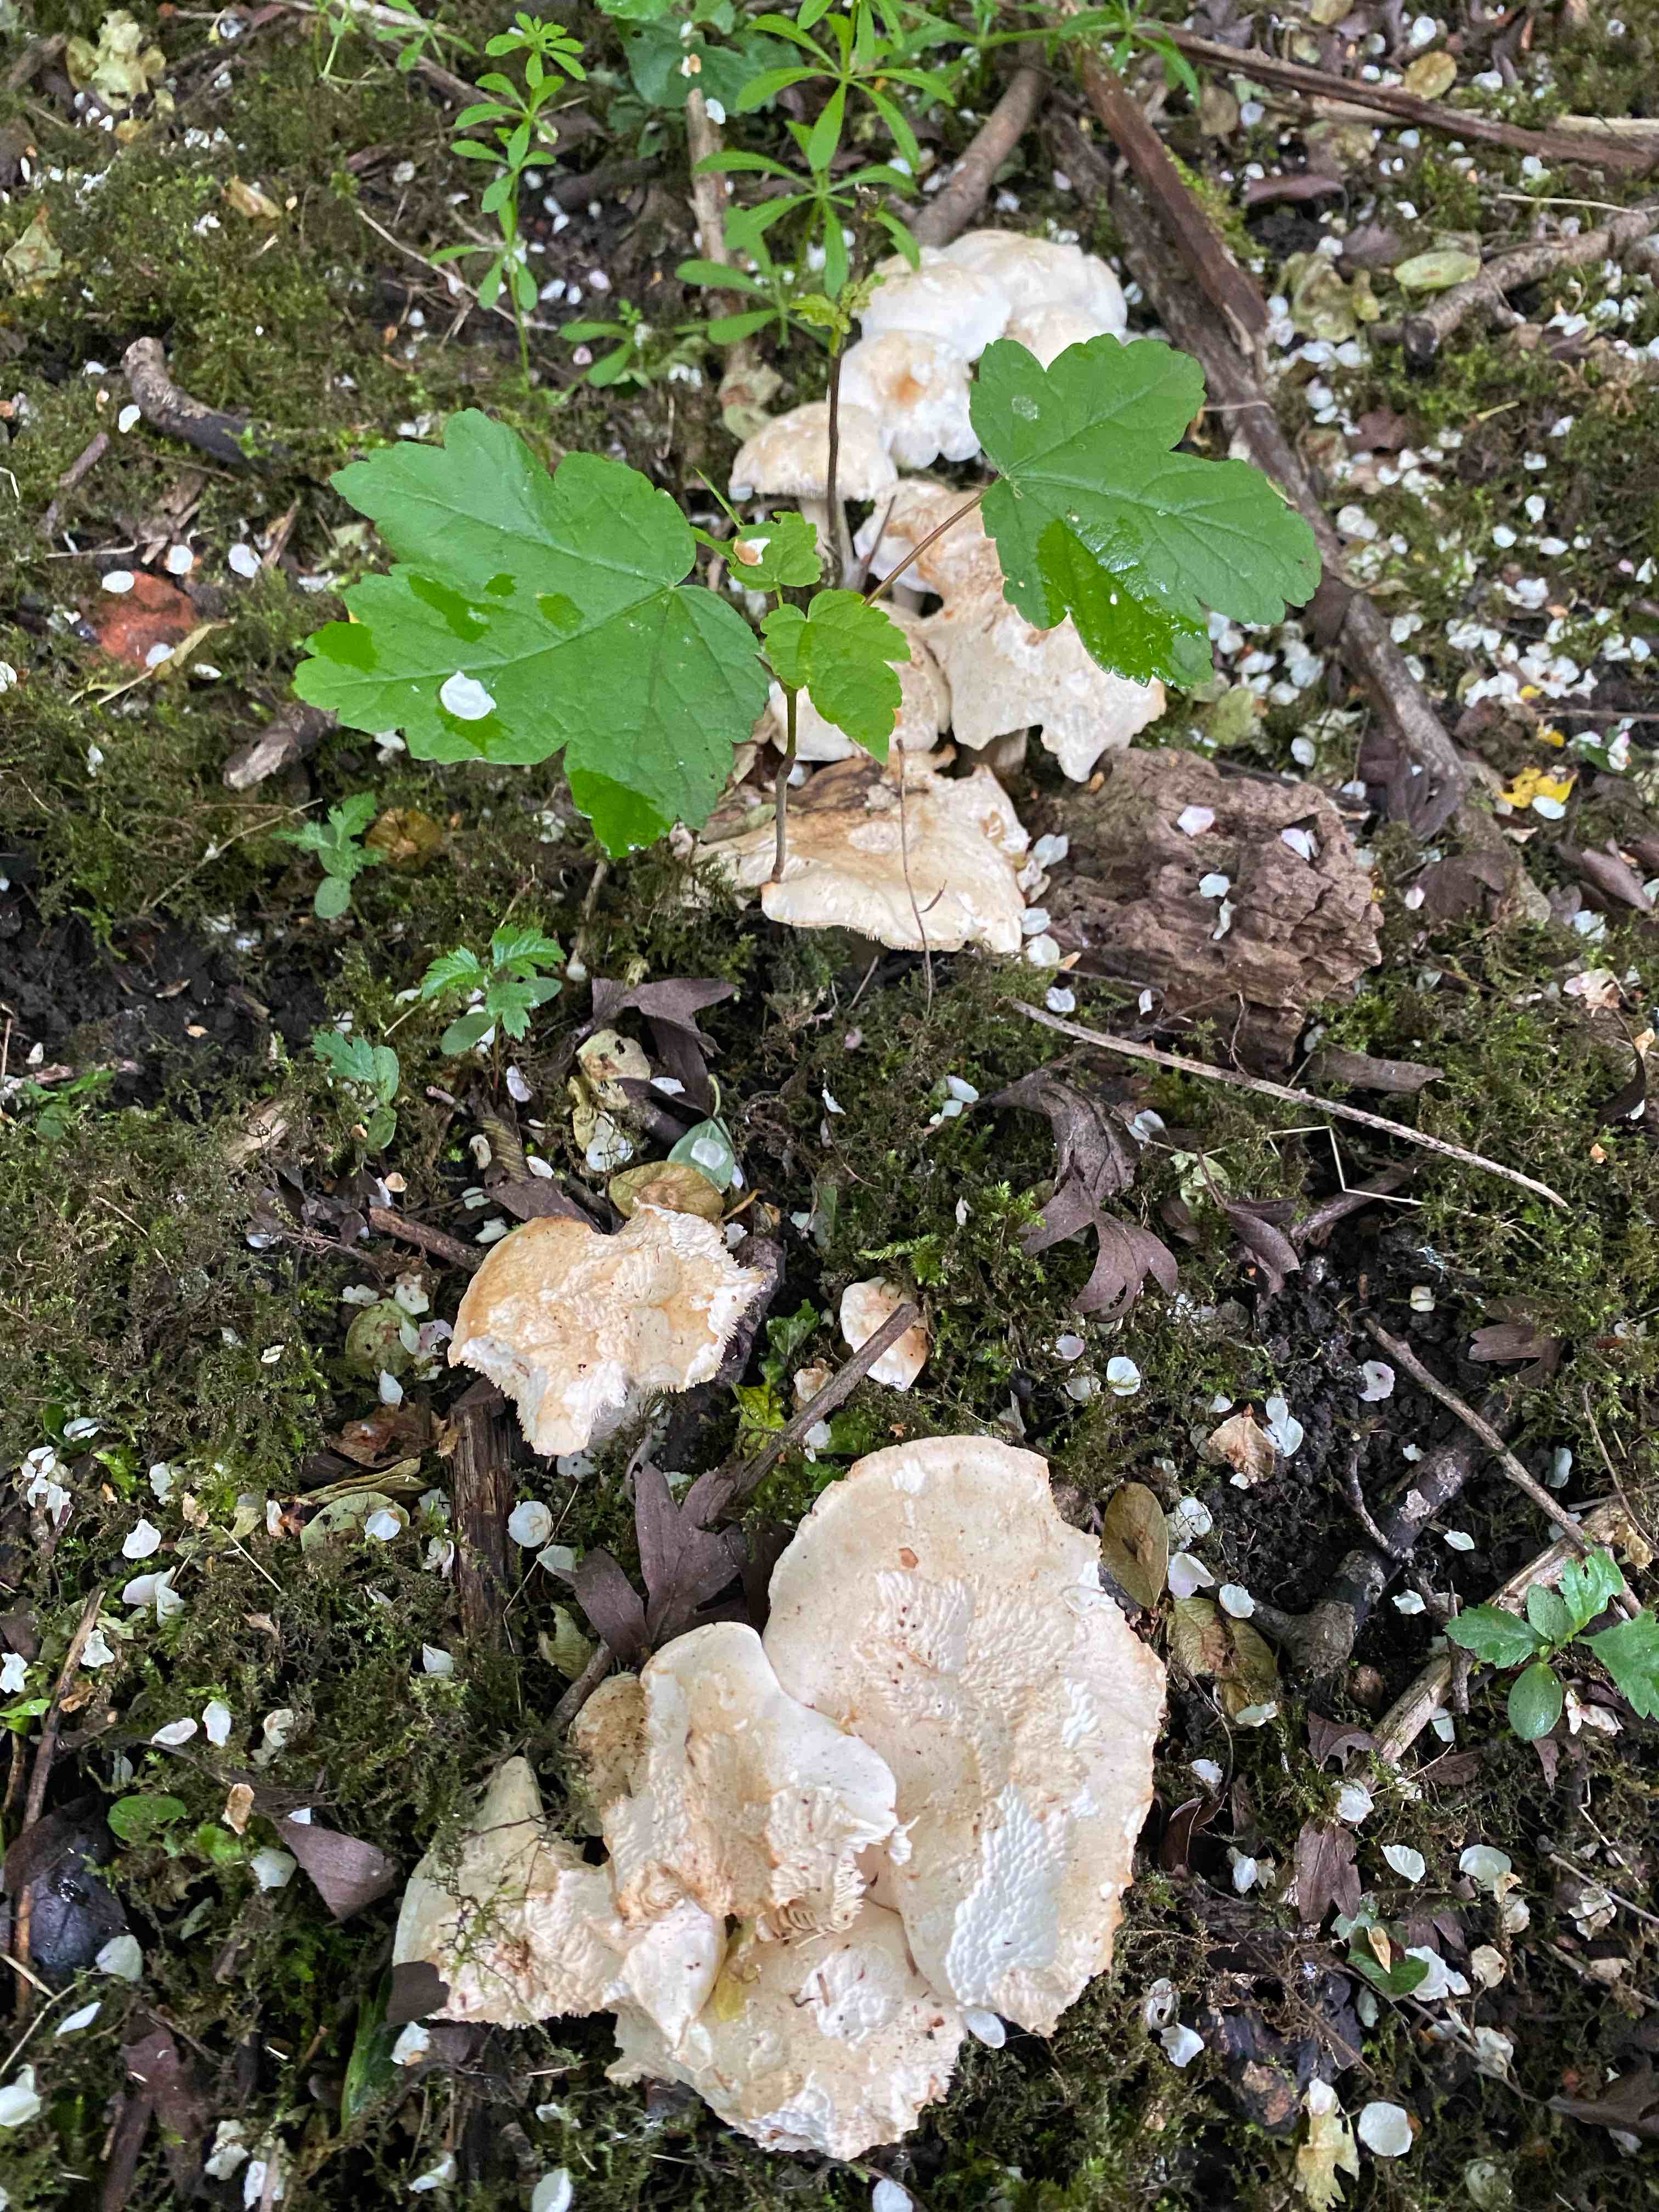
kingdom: Fungi
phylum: Basidiomycota
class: Agaricomycetes
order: Agaricales
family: Lyophyllaceae
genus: Calocybe
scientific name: Calocybe gambosa
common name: vårmusseron
